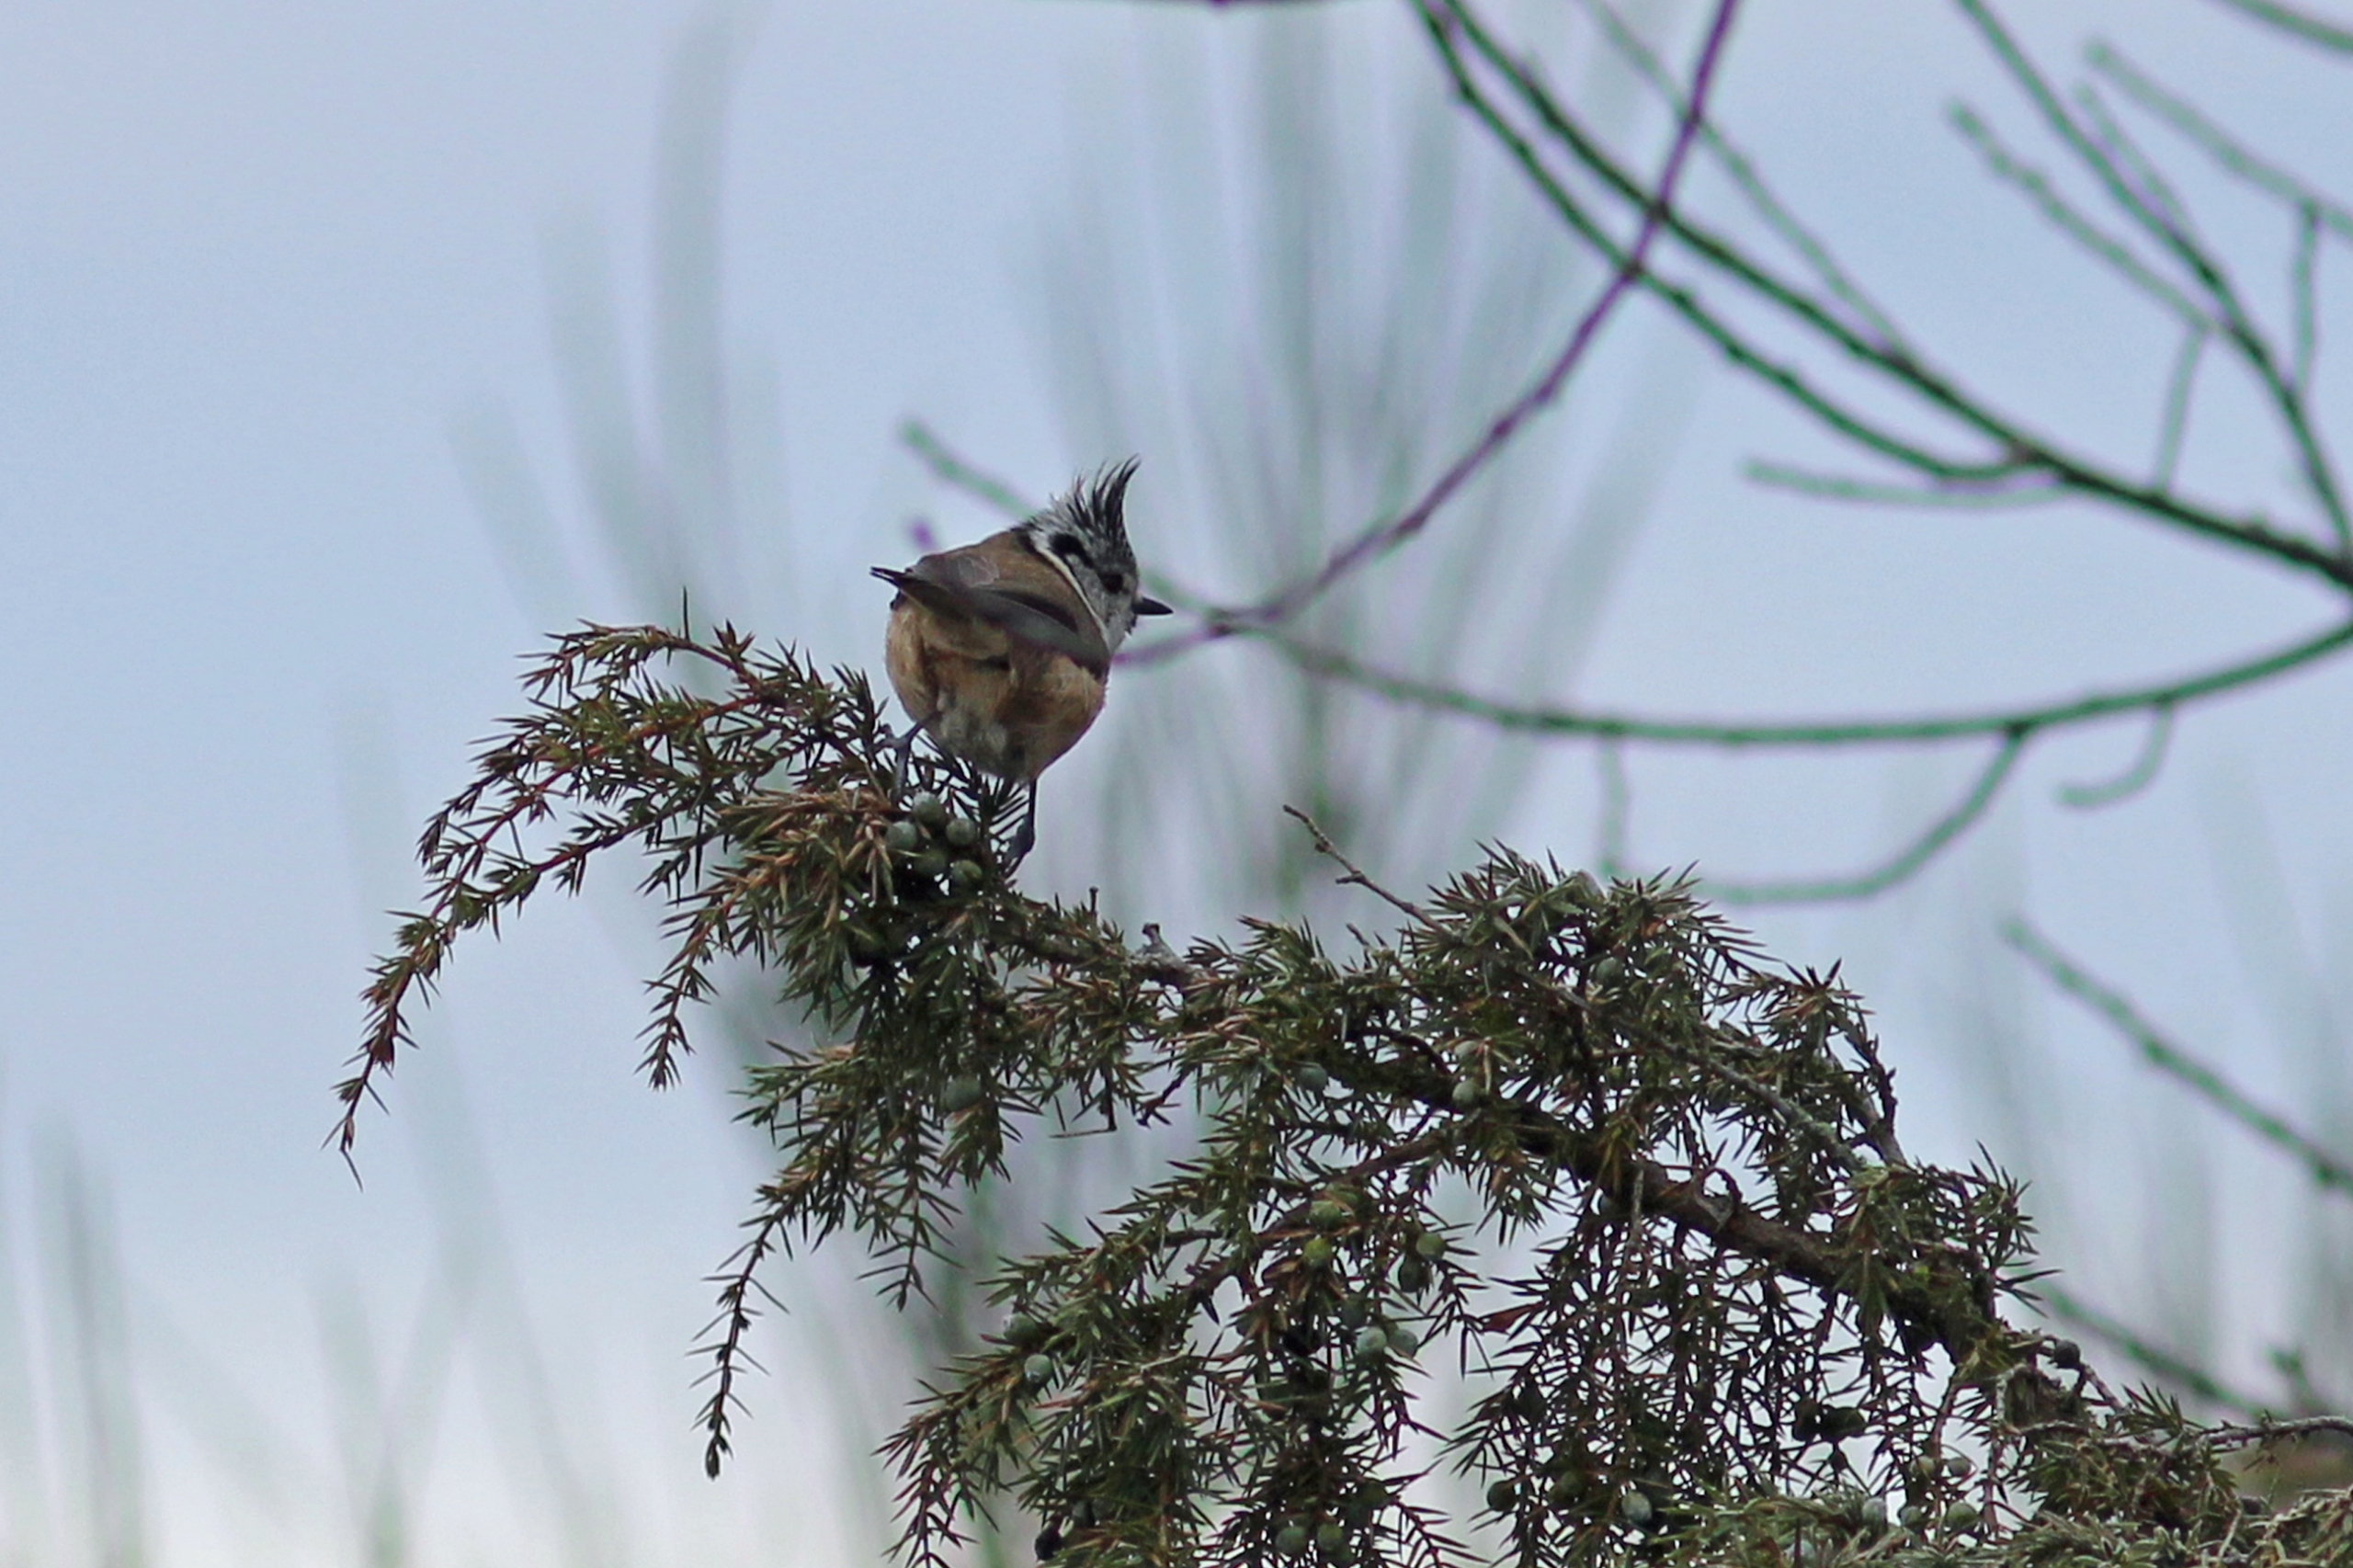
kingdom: Animalia
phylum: Chordata
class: Aves
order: Passeriformes
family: Paridae
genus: Lophophanes
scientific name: Lophophanes cristatus
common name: Topmejse
